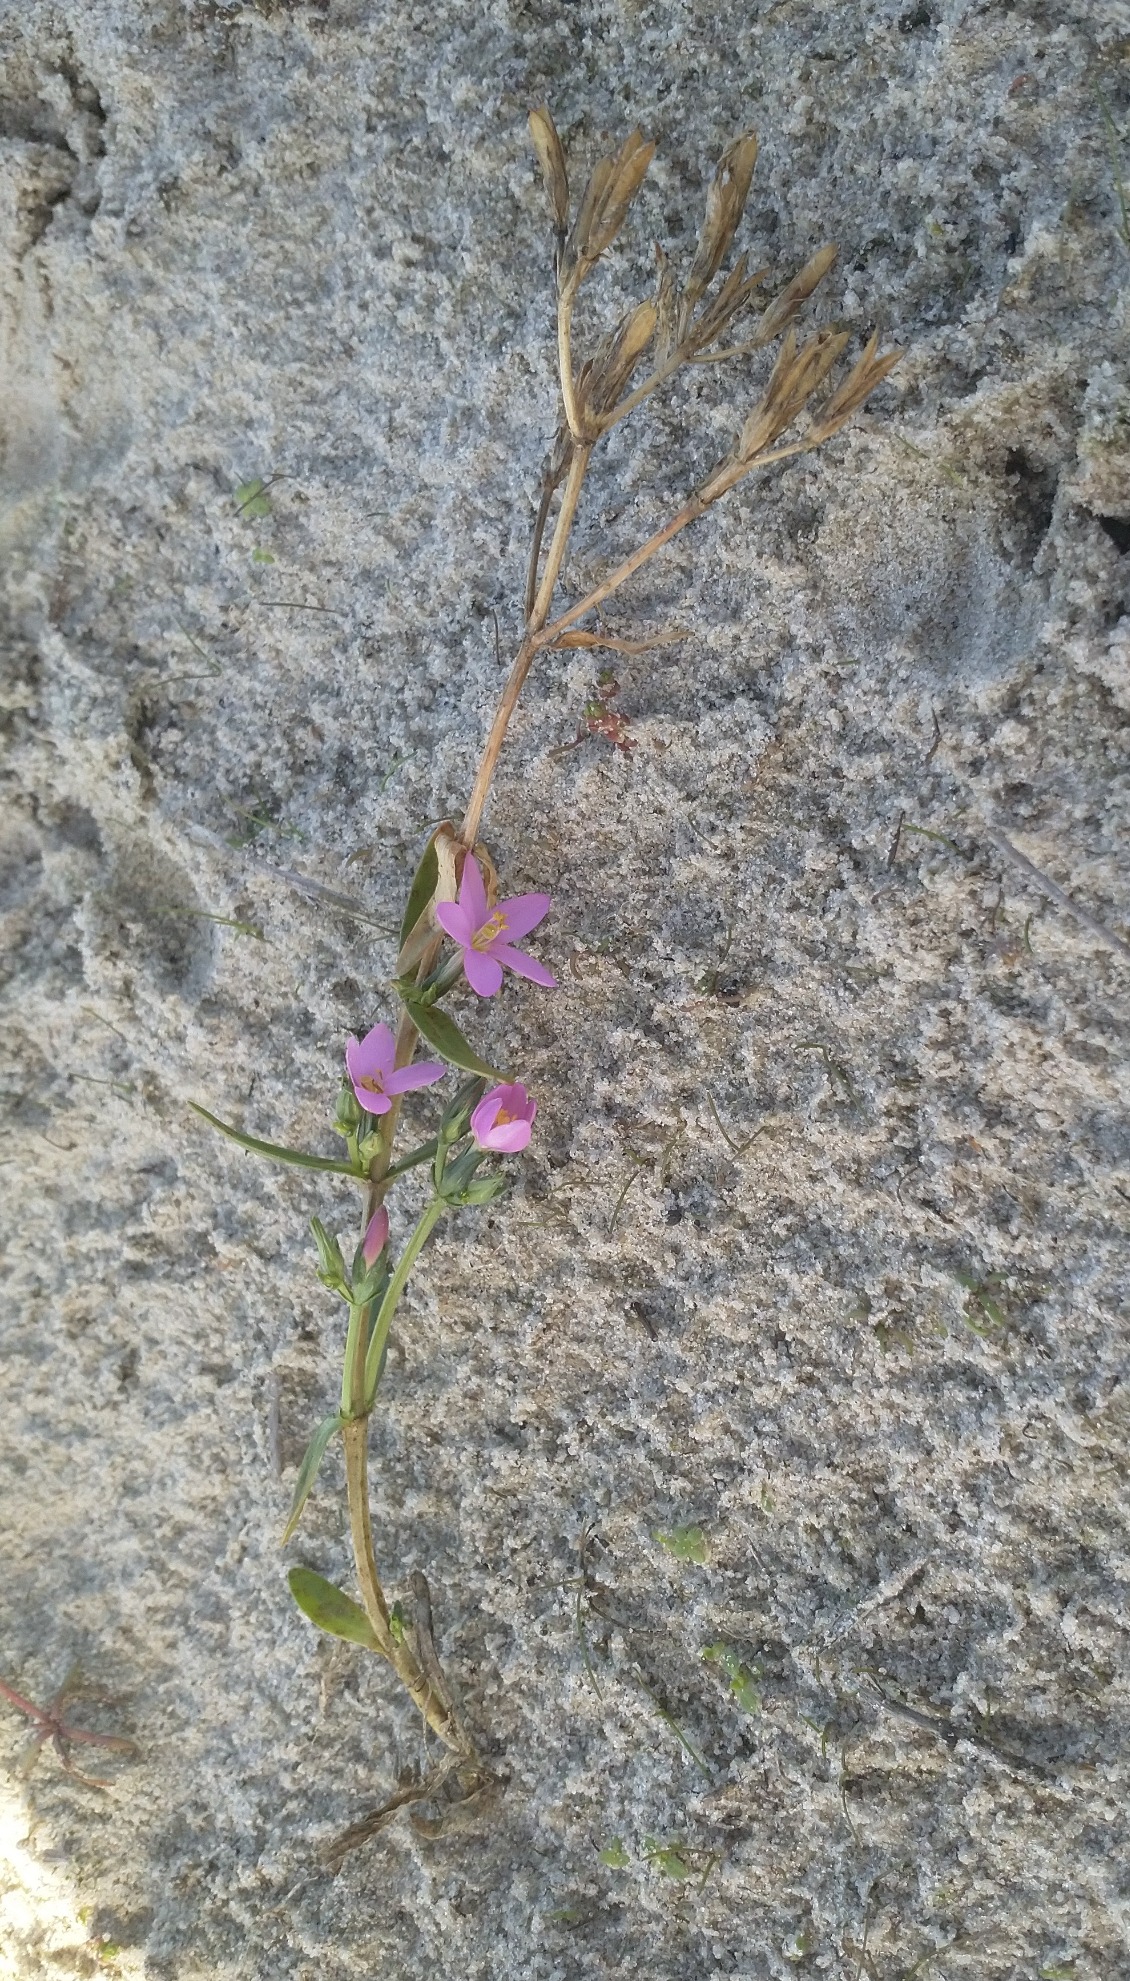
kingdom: Plantae
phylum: Tracheophyta
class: Magnoliopsida
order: Gentianales
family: Gentianaceae
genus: Centaurium
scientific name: Centaurium littorale
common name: Strand-tusindgylden
